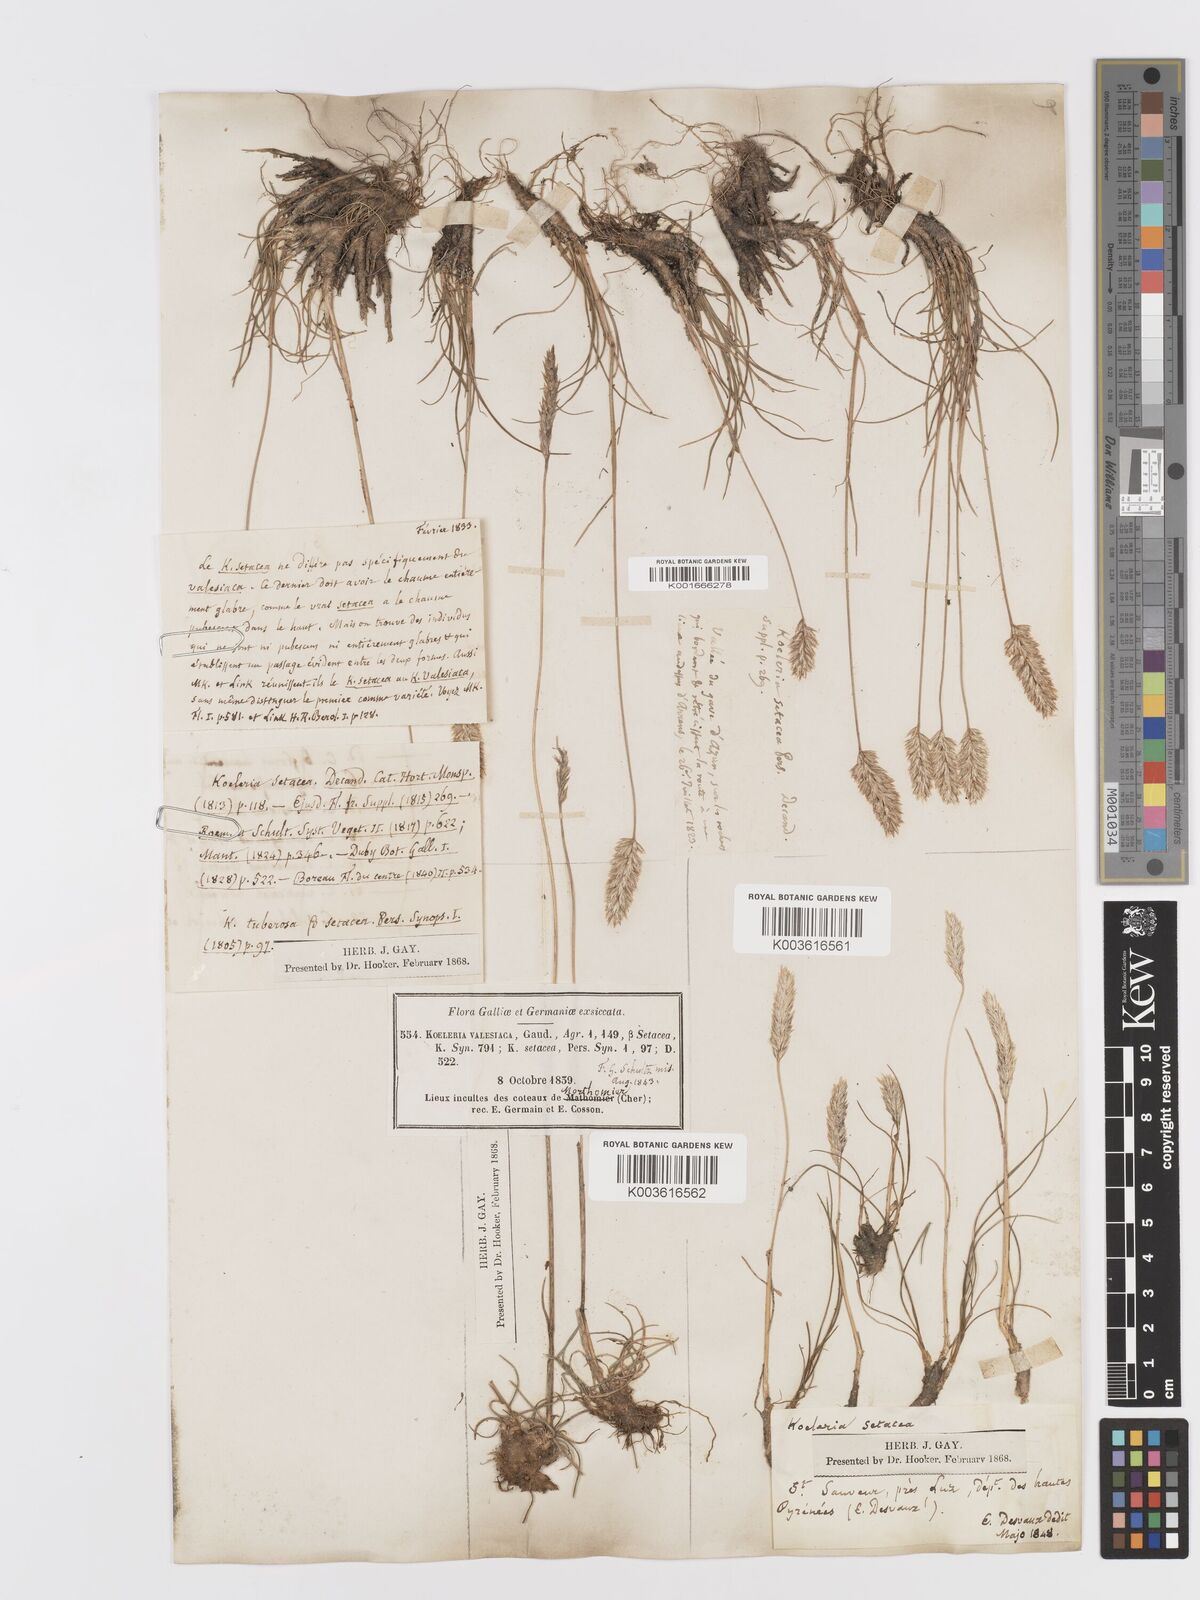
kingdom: Plantae
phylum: Tracheophyta
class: Liliopsida
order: Poales
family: Poaceae
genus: Koeleria
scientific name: Koeleria vallesiana
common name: Somerset hair-grass
